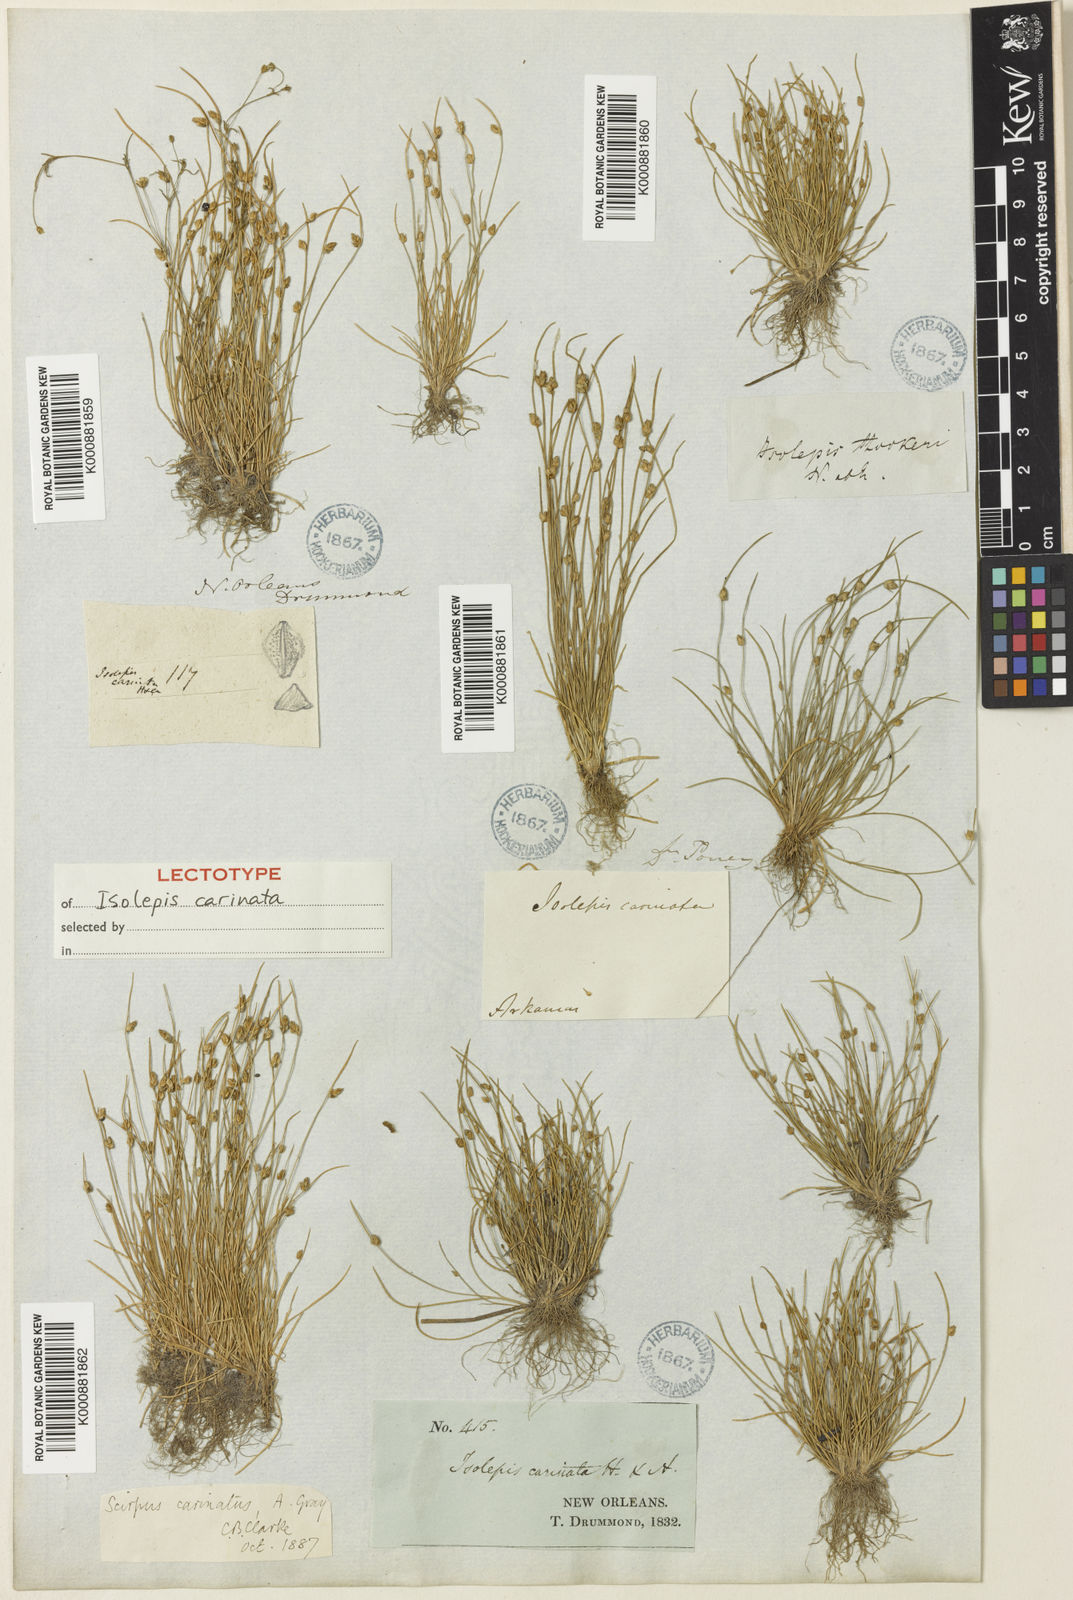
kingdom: Plantae
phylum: Tracheophyta
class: Liliopsida
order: Poales
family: Cyperaceae
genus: Isolepis
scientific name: Isolepis carinata
